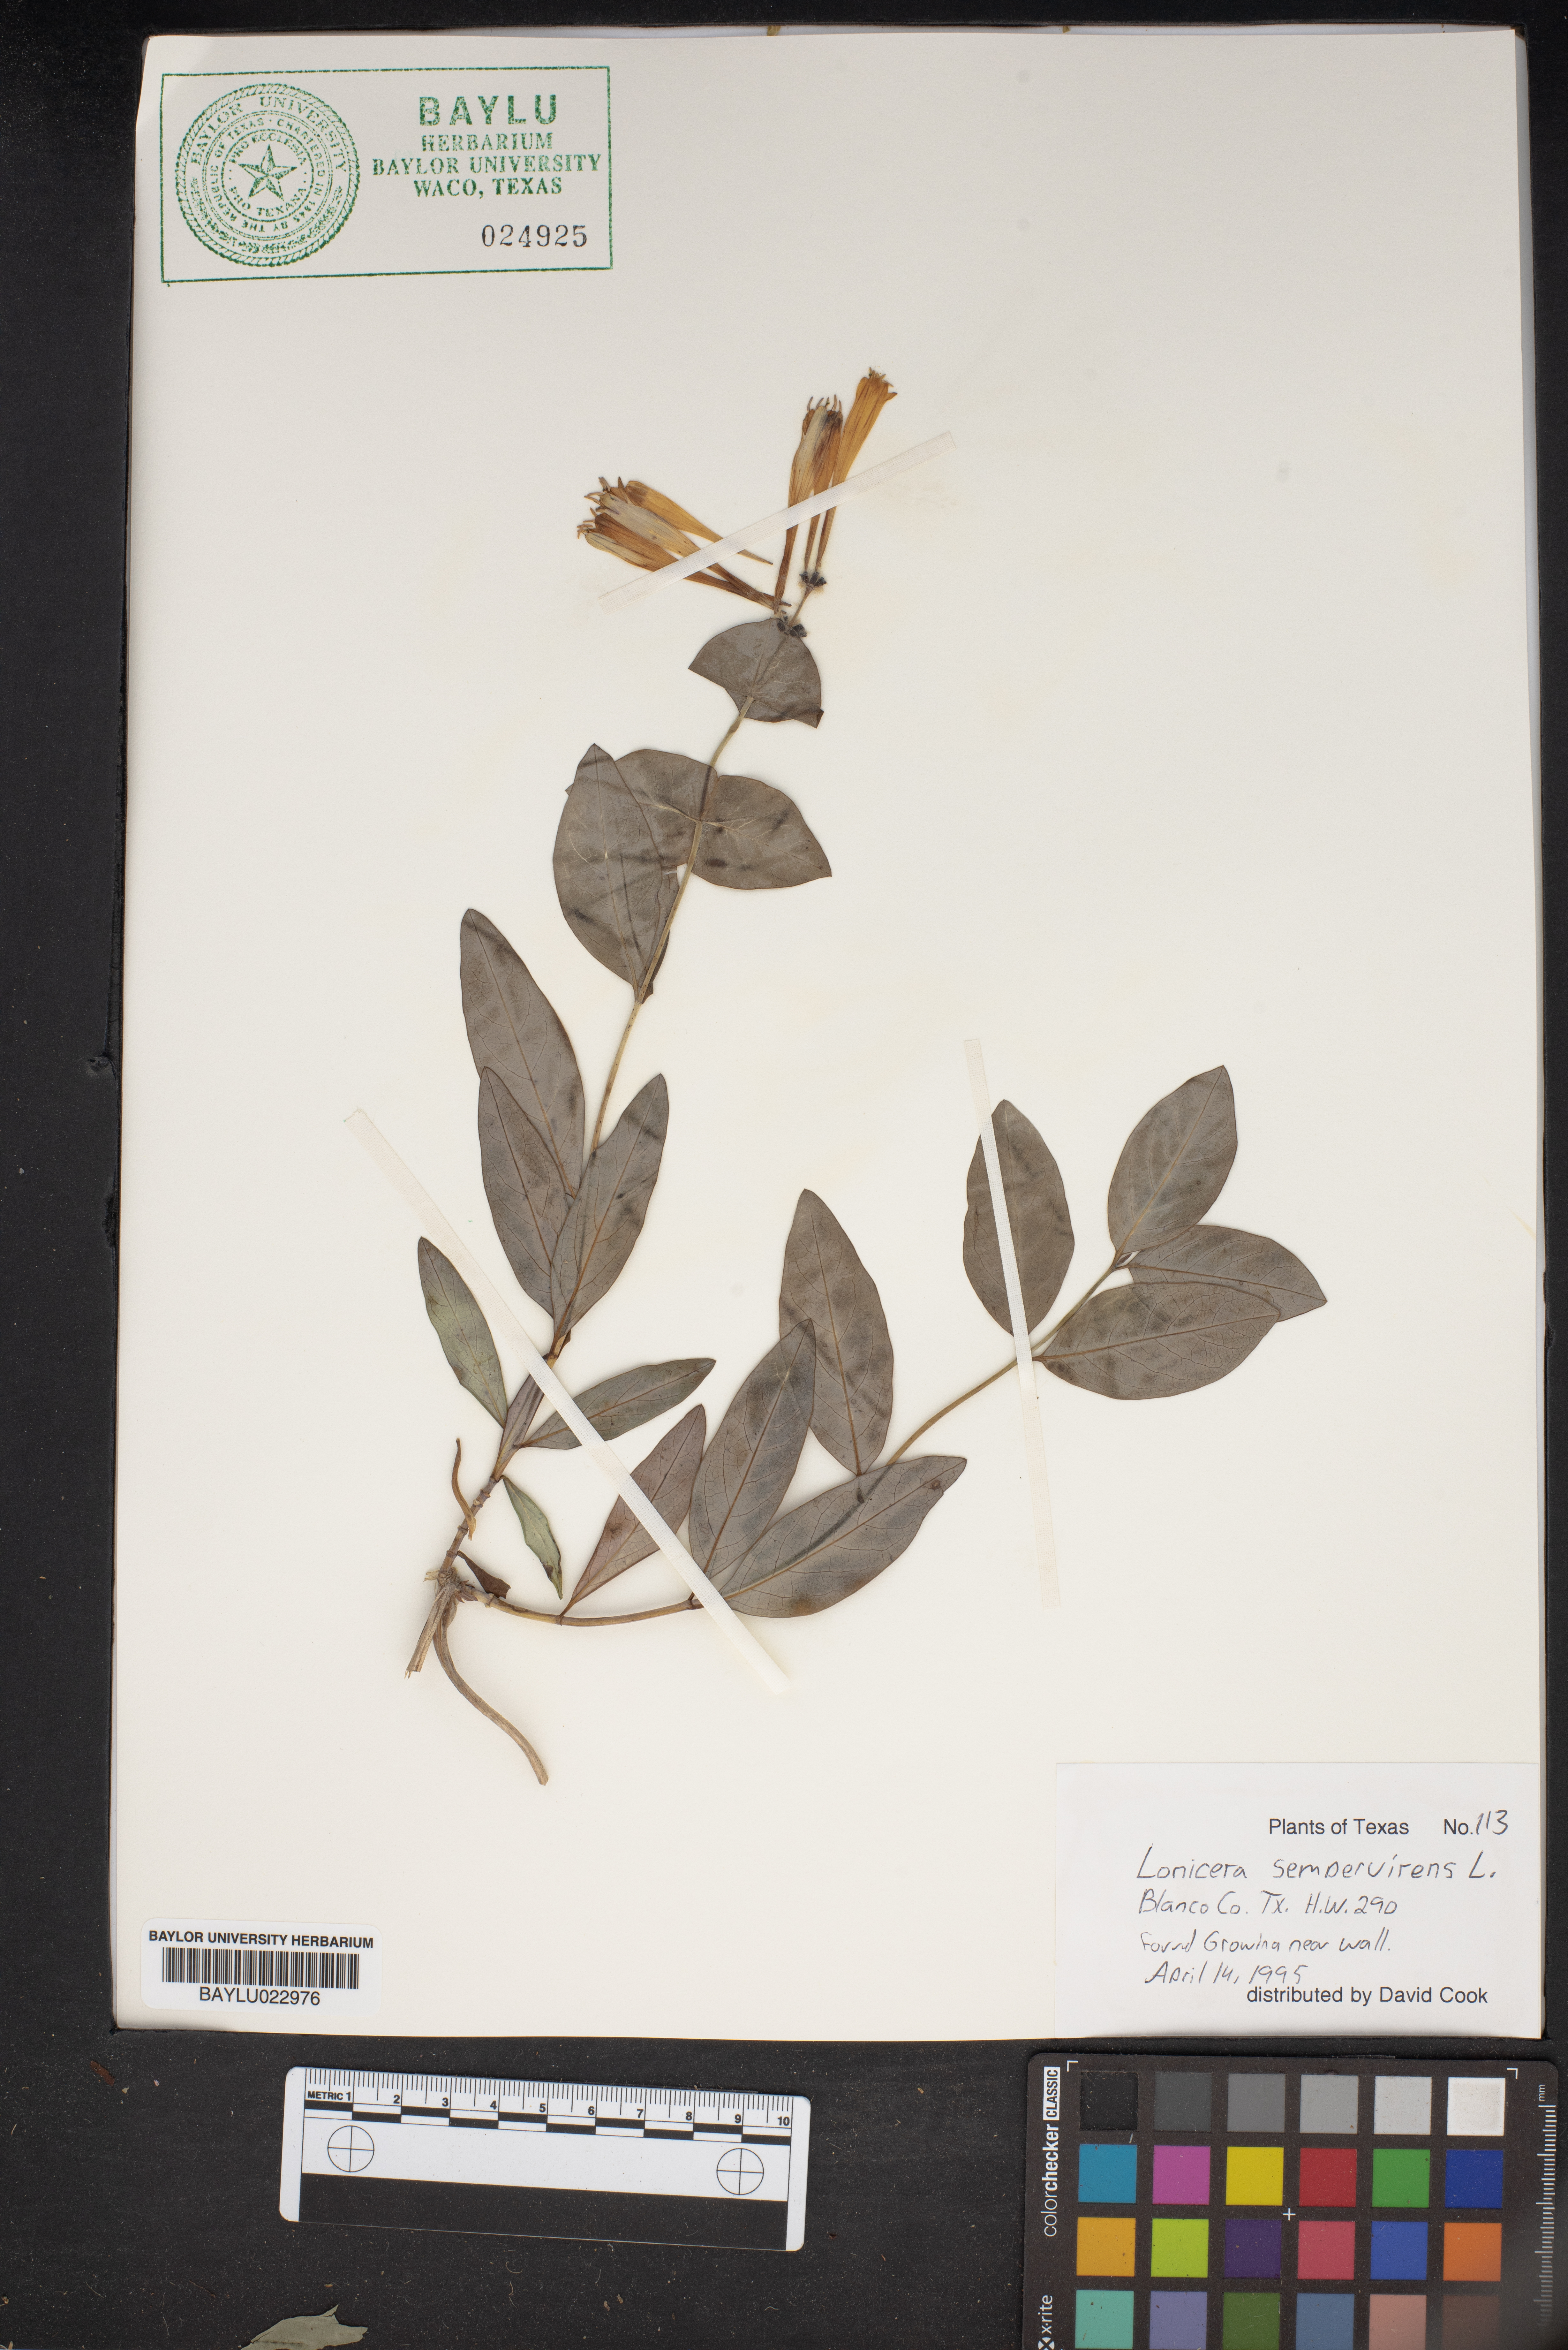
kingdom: Plantae
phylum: Tracheophyta
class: Magnoliopsida
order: Dipsacales
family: Caprifoliaceae
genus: Lonicera
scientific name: Lonicera sempervirens
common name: Coral honeysuckle
